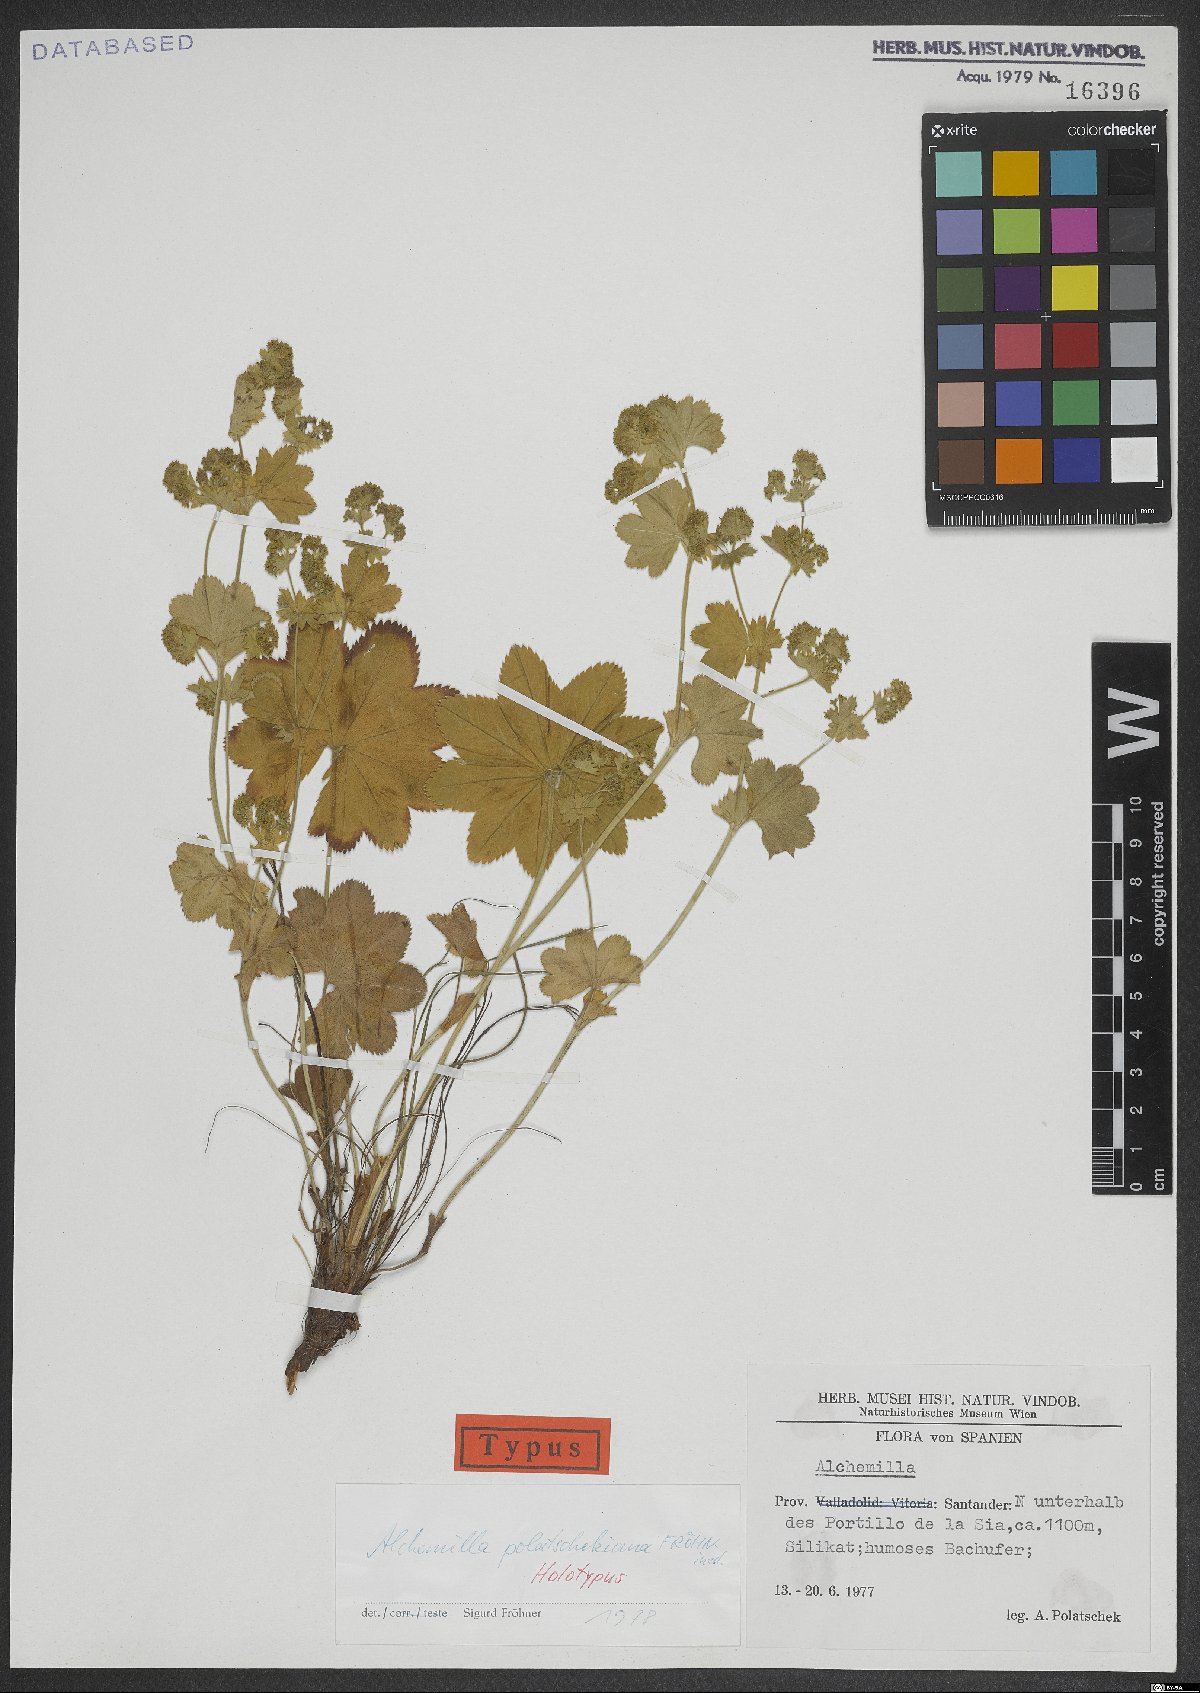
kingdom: Plantae
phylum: Tracheophyta
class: Magnoliopsida
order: Rosales
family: Rosaceae
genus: Alchemilla
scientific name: Alchemilla polatschekiana
